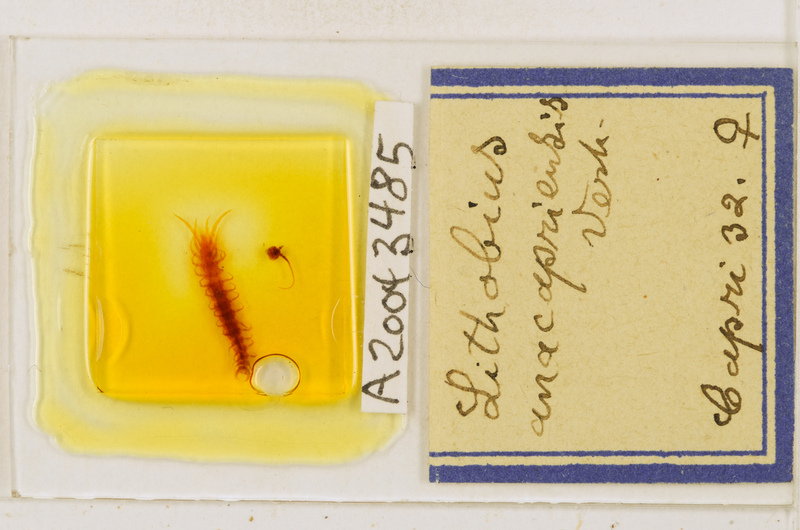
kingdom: Animalia
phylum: Arthropoda
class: Chilopoda
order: Lithobiomorpha
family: Lithobiidae
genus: Lithobius
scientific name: Lithobius erythrocephalus
